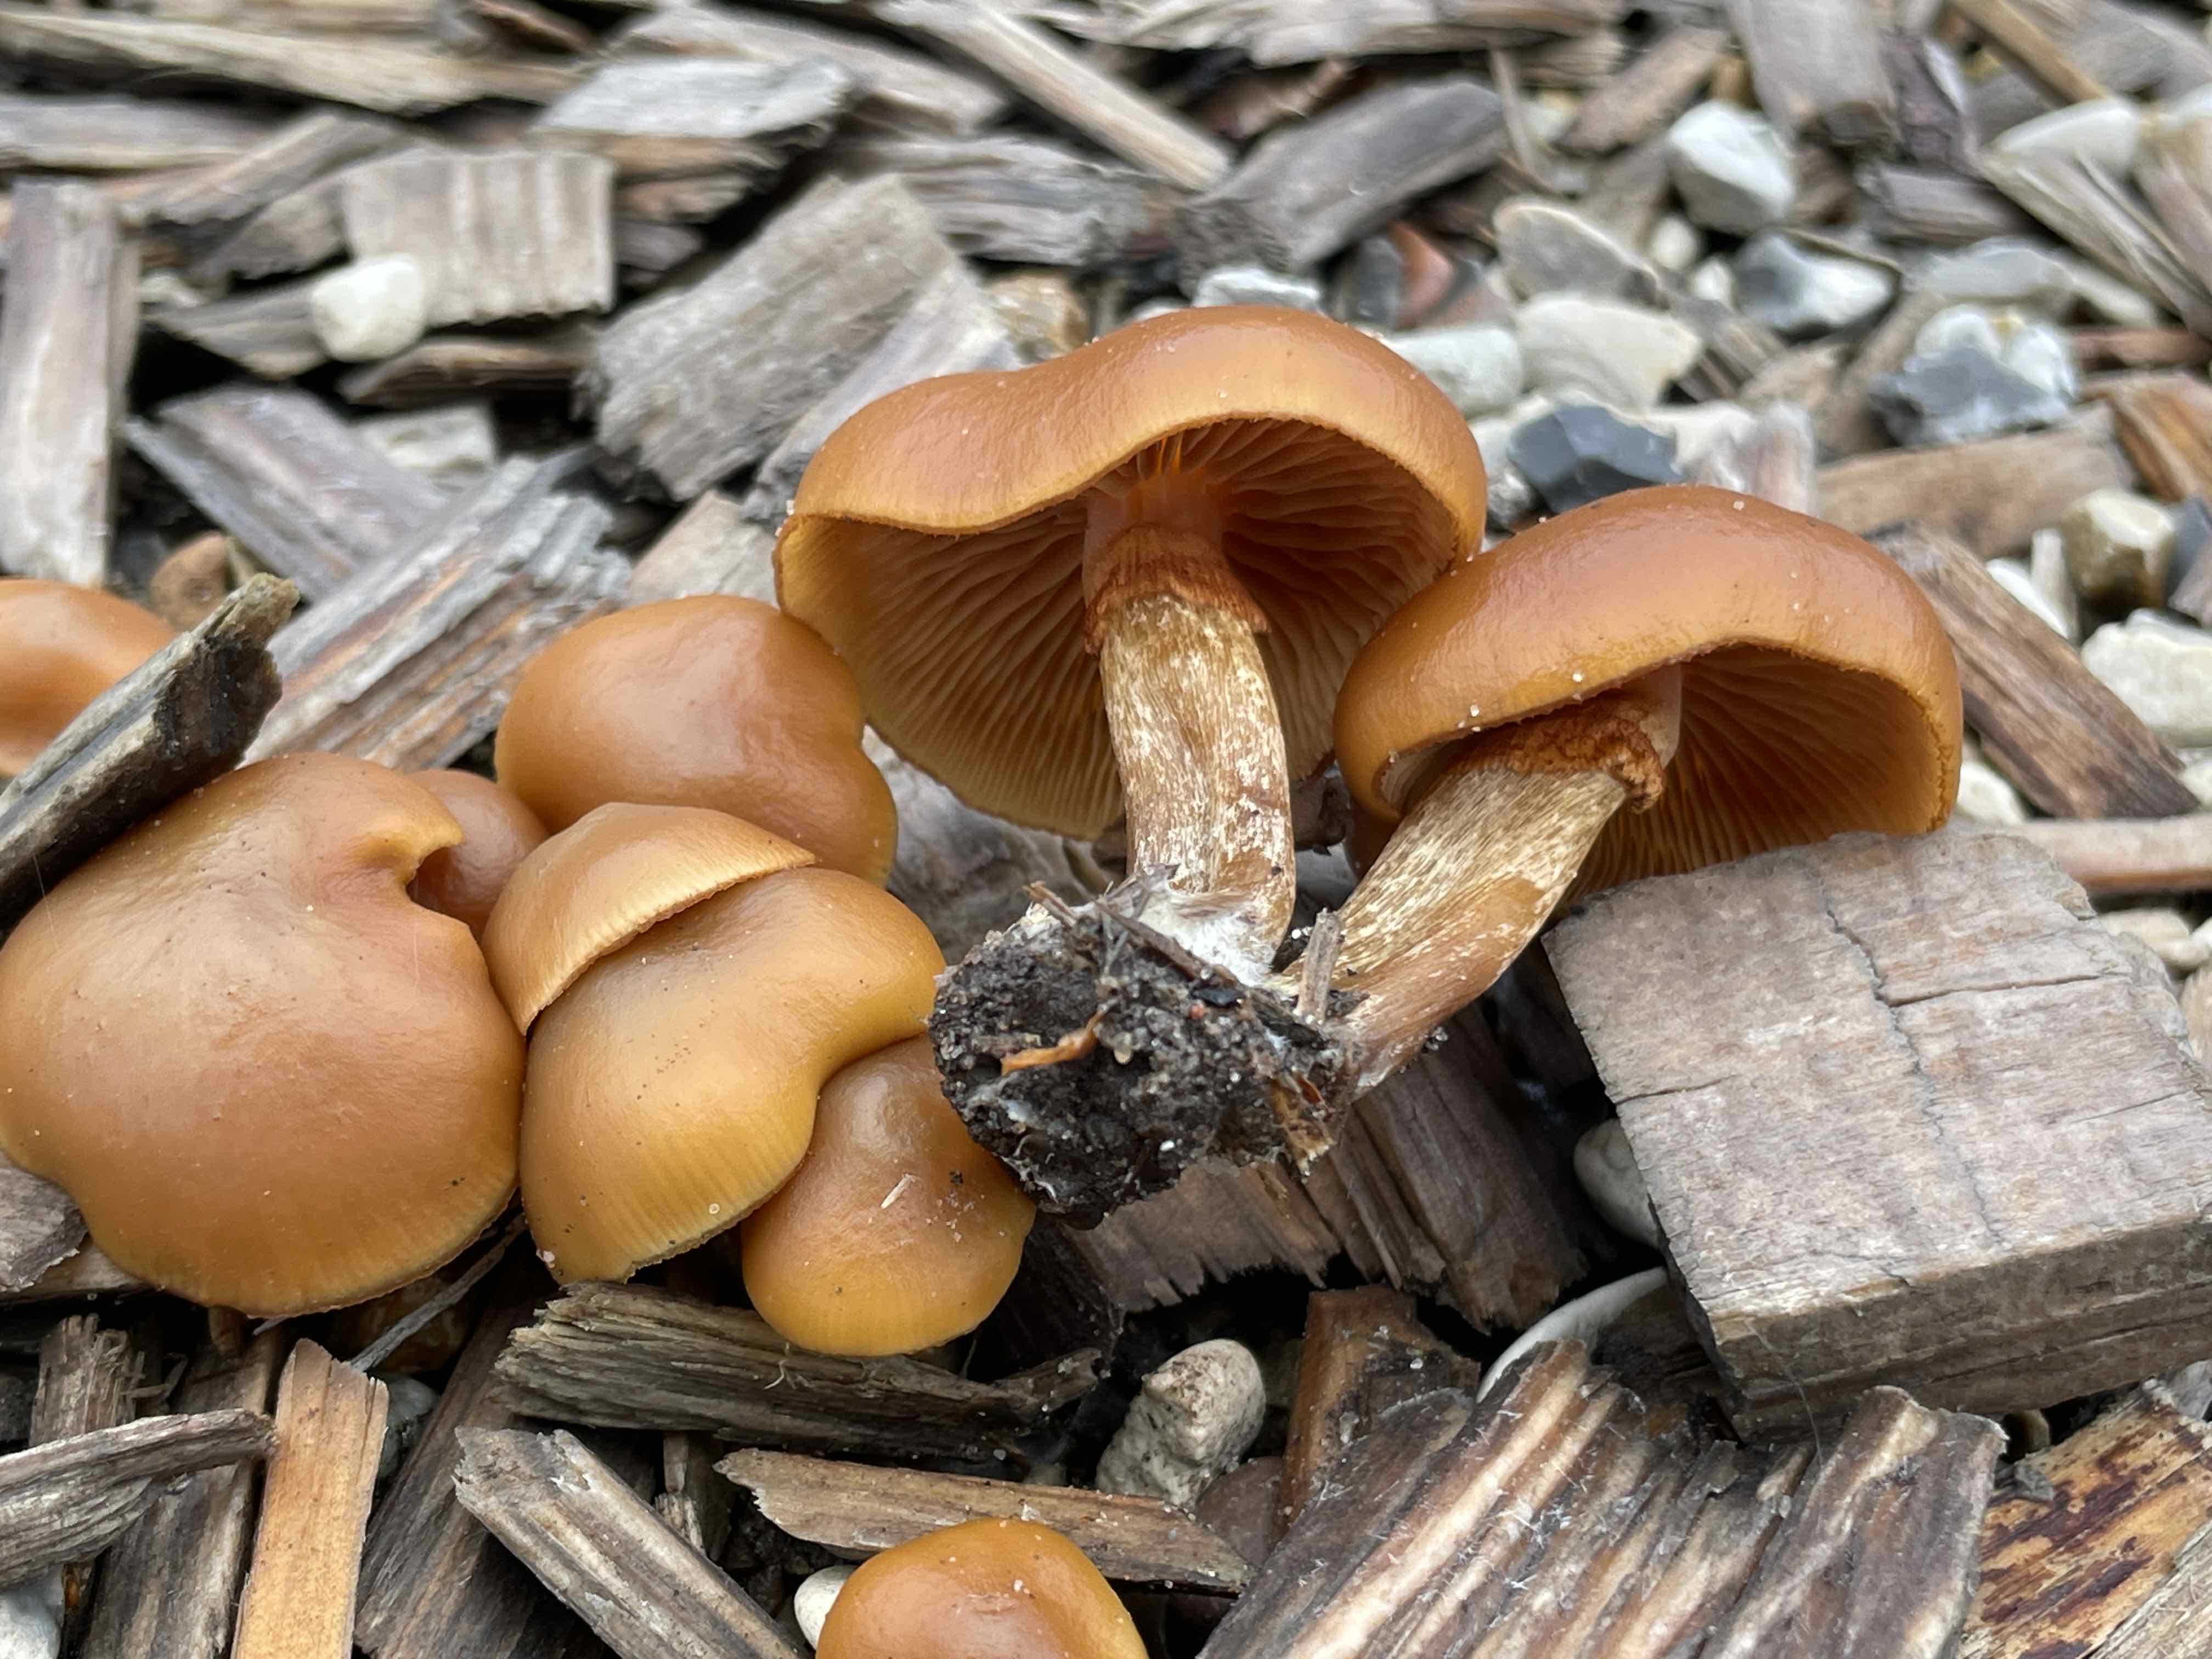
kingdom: Fungi
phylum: Basidiomycota
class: Agaricomycetes
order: Agaricales
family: Hymenogastraceae
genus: Galerina
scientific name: Galerina marginata
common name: randbæltet hjelmhat
